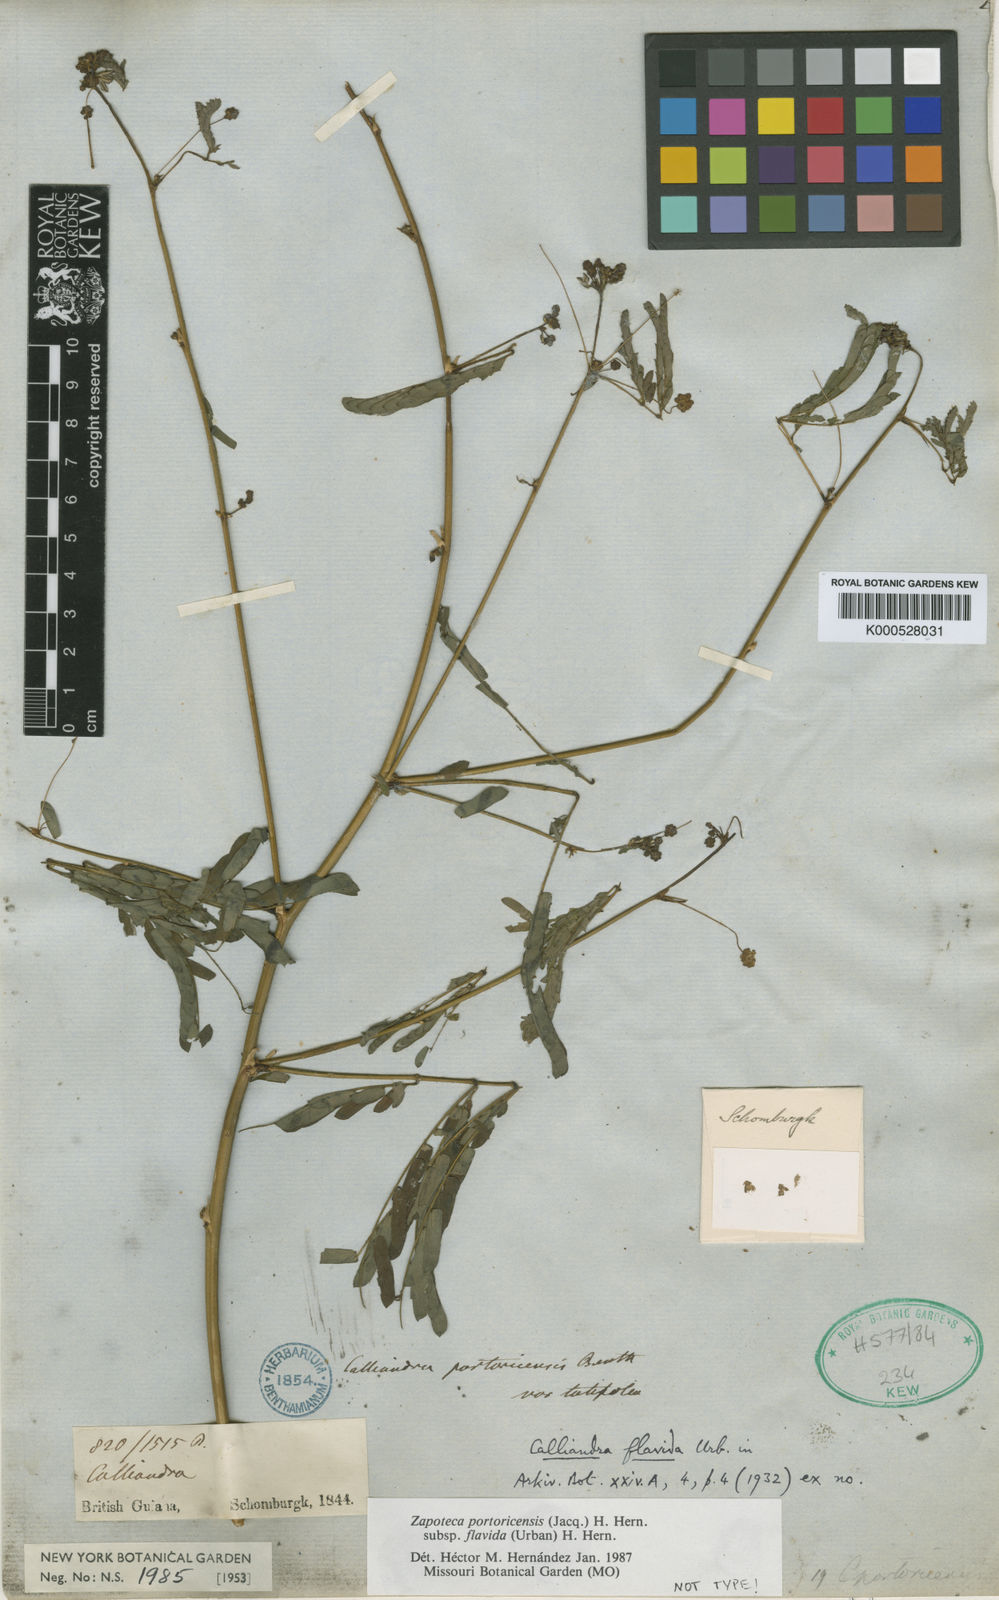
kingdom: Plantae
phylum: Tracheophyta
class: Magnoliopsida
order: Fabales
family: Fabaceae
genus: Zapoteca
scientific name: Zapoteca portoricensis
